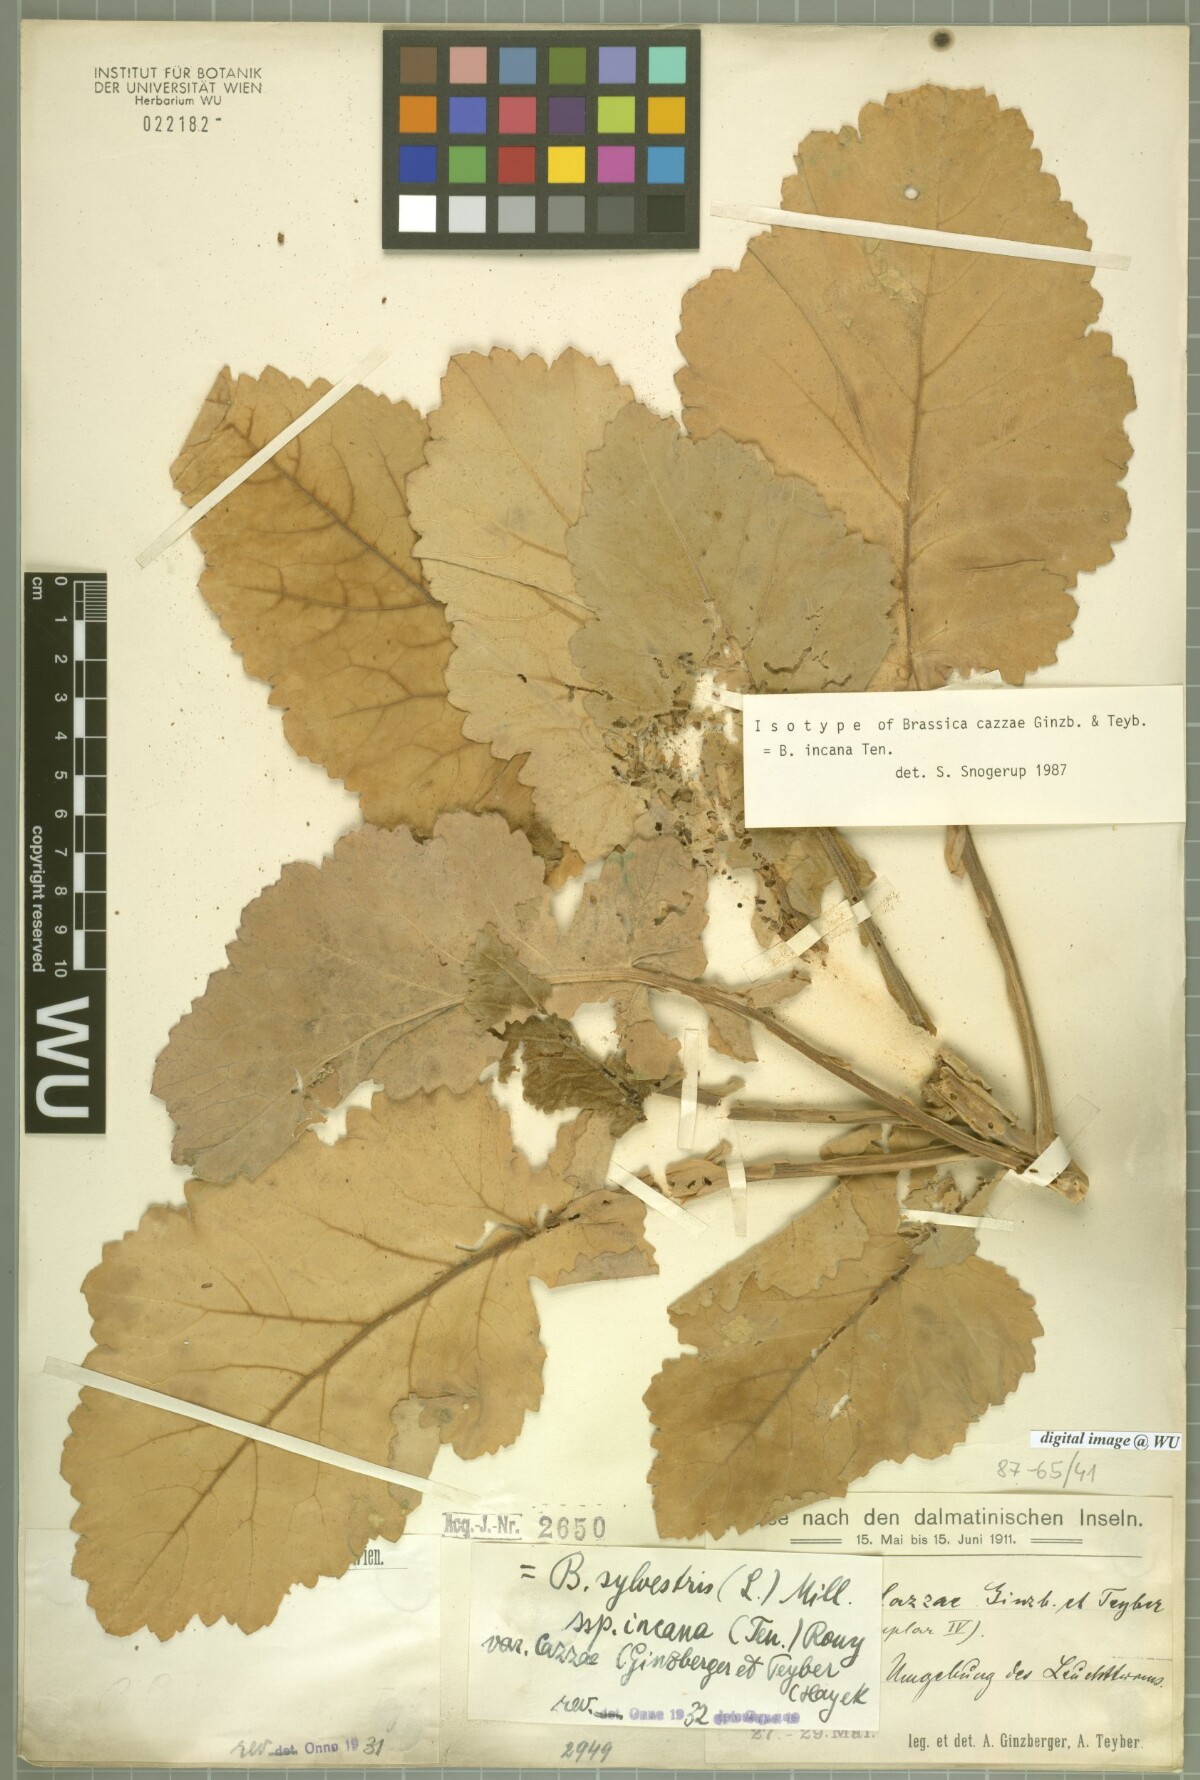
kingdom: Plantae
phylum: Tracheophyta
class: Magnoliopsida
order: Brassicales
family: Brassicaceae
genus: Brassica
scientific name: Brassica incana
